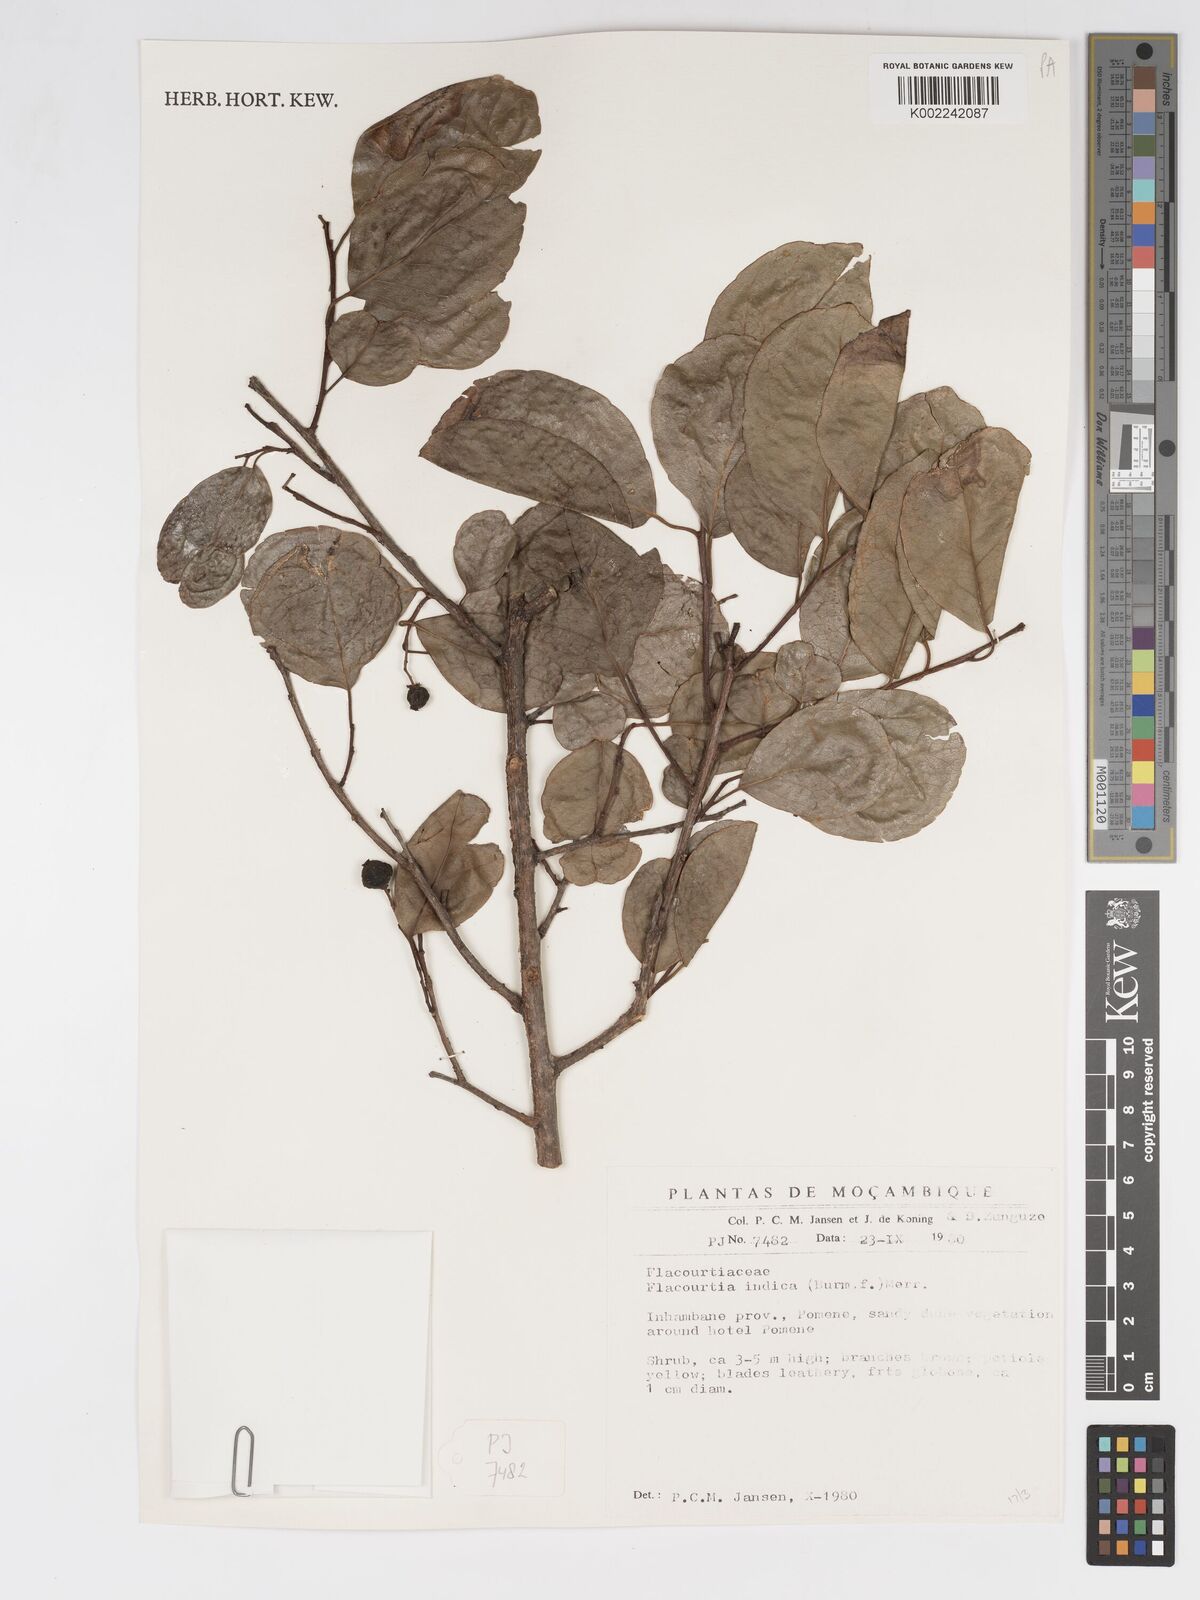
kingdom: Plantae
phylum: Tracheophyta
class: Magnoliopsida
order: Malpighiales
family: Salicaceae
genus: Flacourtia
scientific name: Flacourtia indica
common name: Governor's plum
